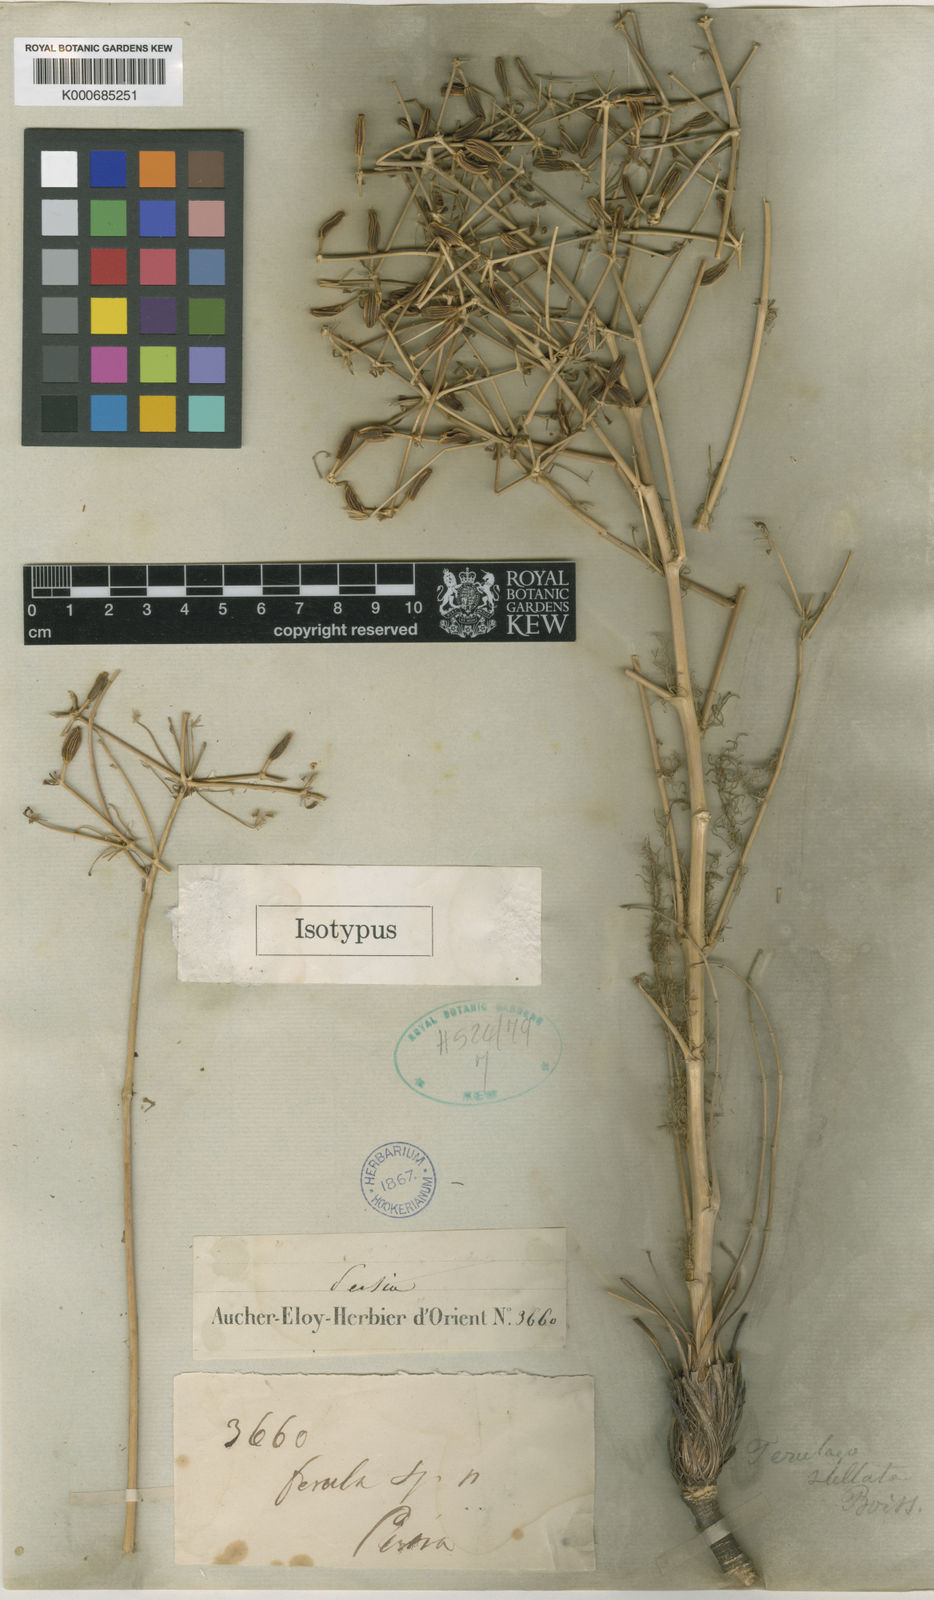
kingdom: Plantae
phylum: Tracheophyta
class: Magnoliopsida
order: Apiales
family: Apiaceae
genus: Ferulago
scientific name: Ferulago stellata
